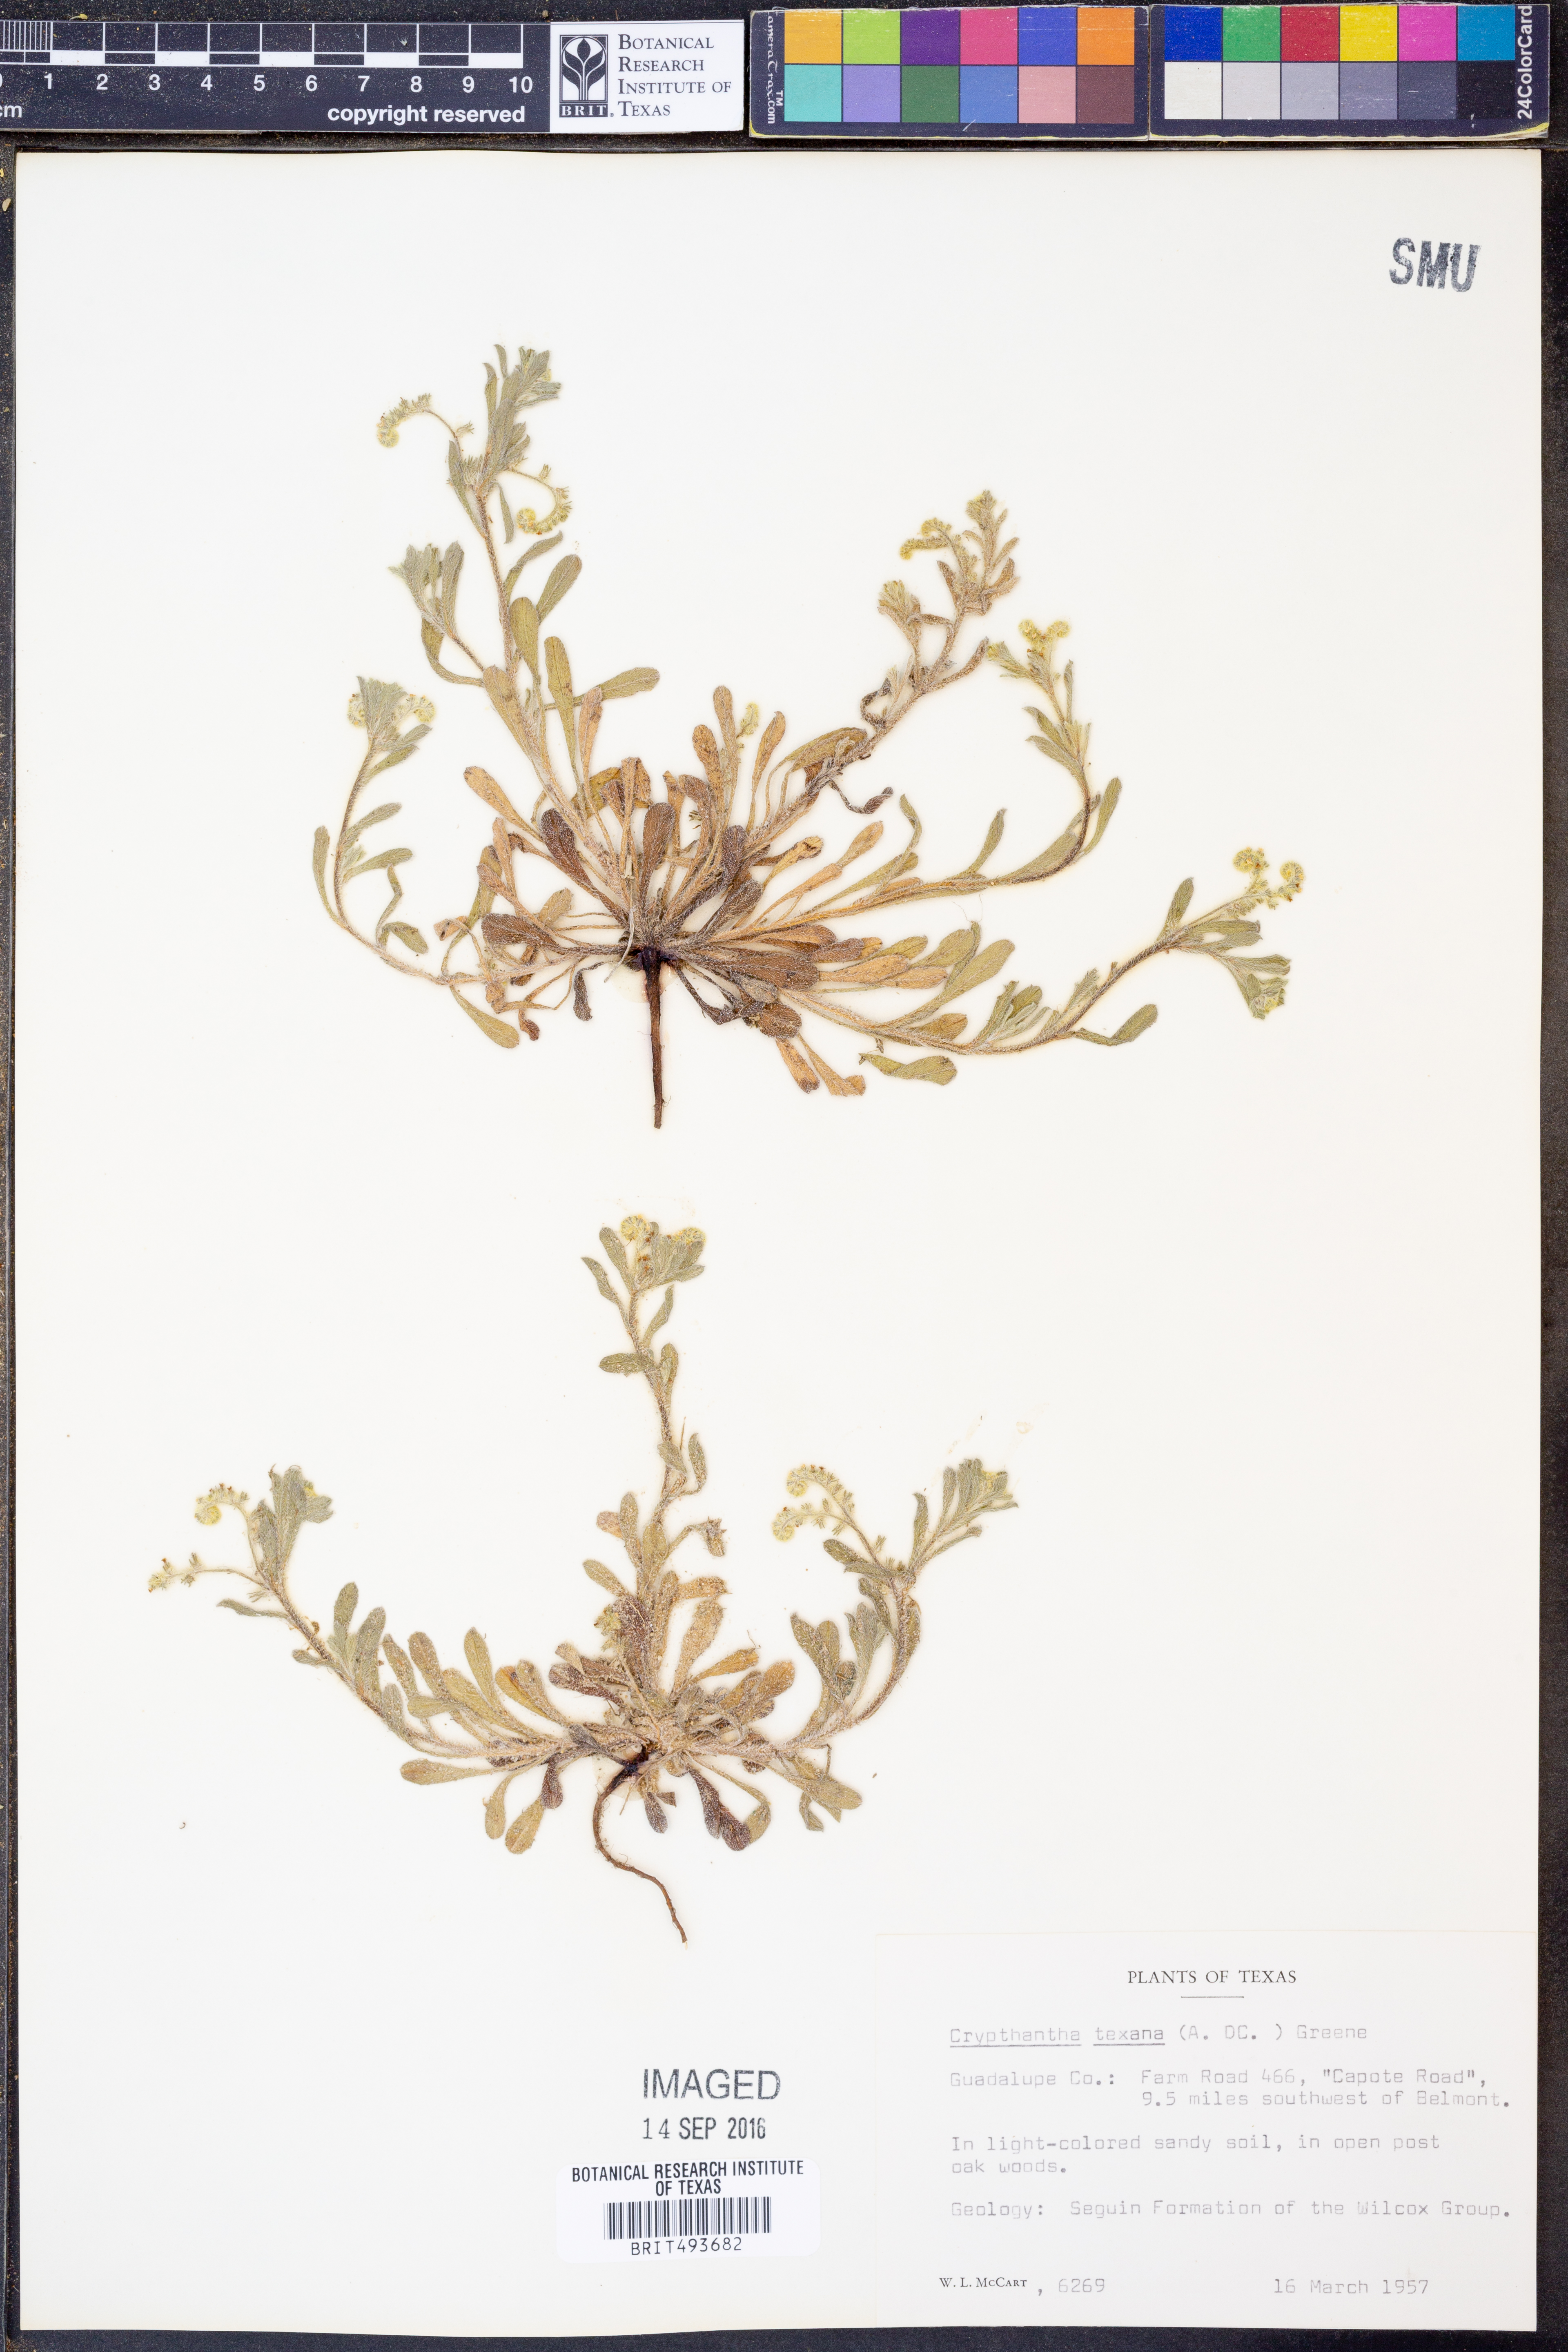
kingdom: Plantae
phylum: Tracheophyta
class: Magnoliopsida
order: Boraginales
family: Boraginaceae
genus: Cryptantha
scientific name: Cryptantha texana
